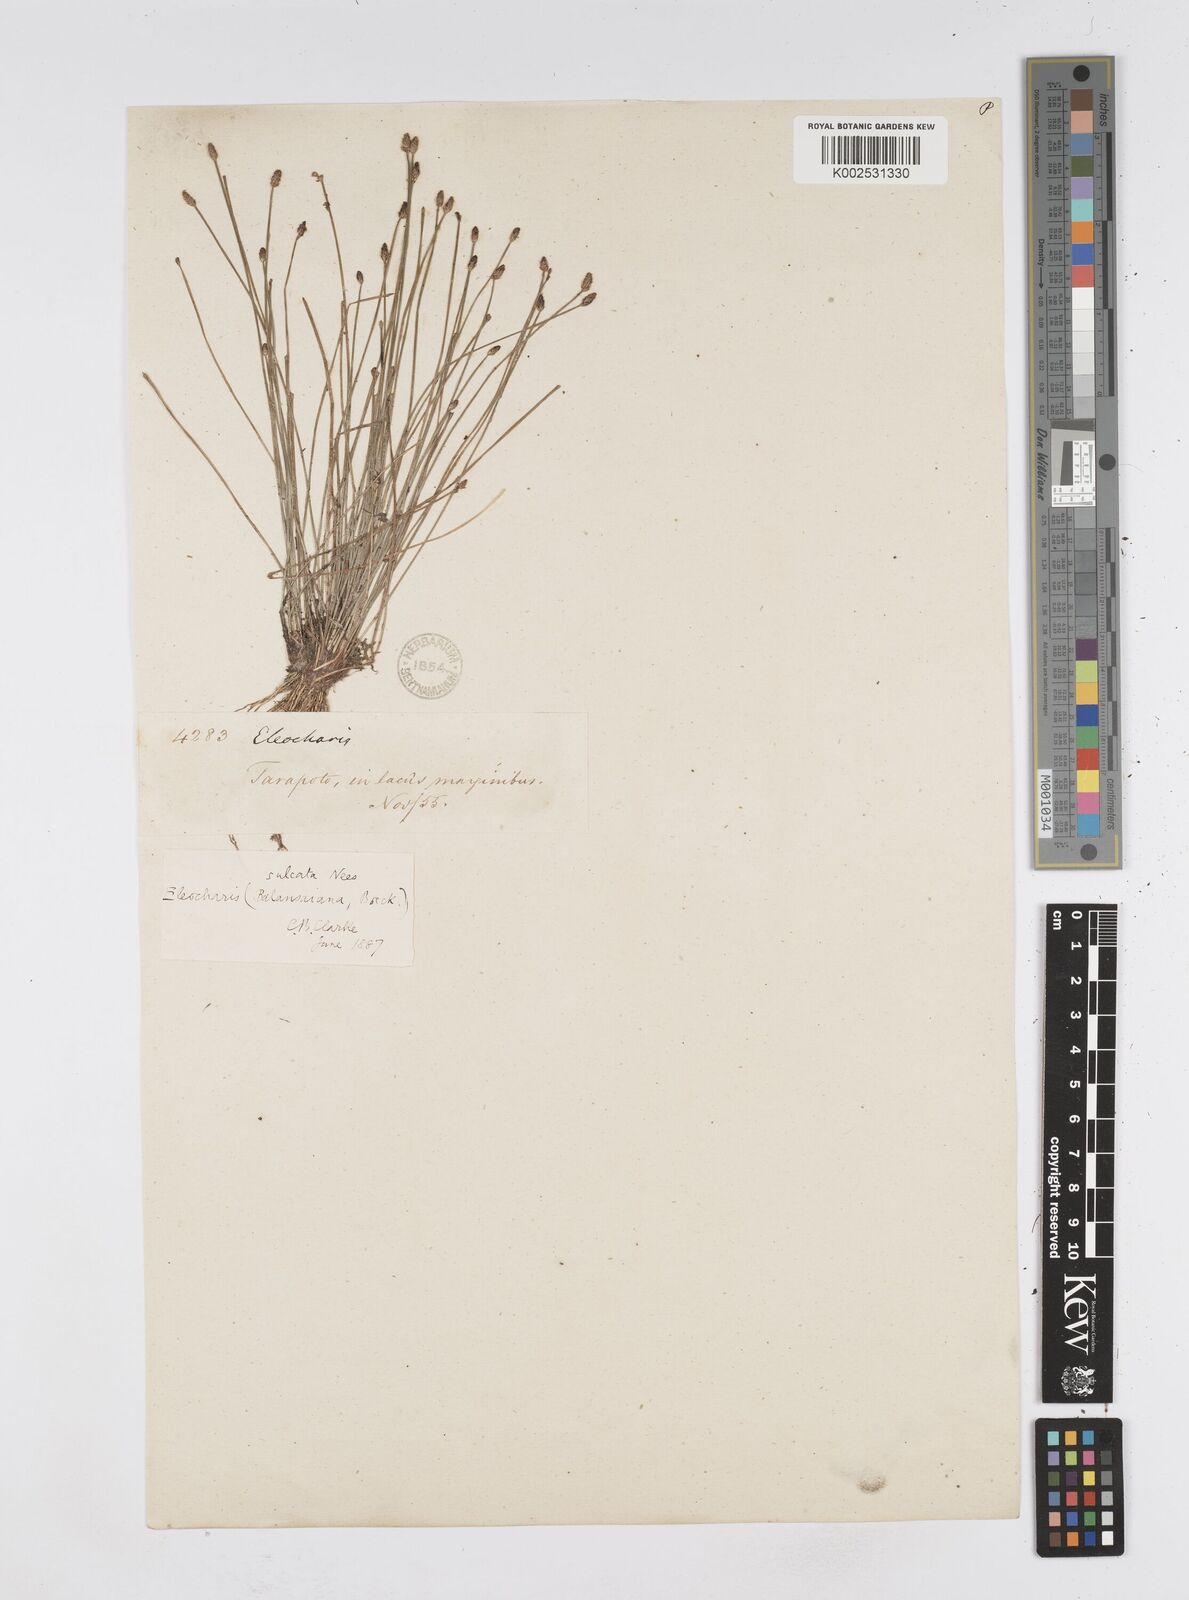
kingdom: Plantae
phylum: Tracheophyta
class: Liliopsida
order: Poales
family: Cyperaceae
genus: Eleocharis
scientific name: Eleocharis filiculmis
